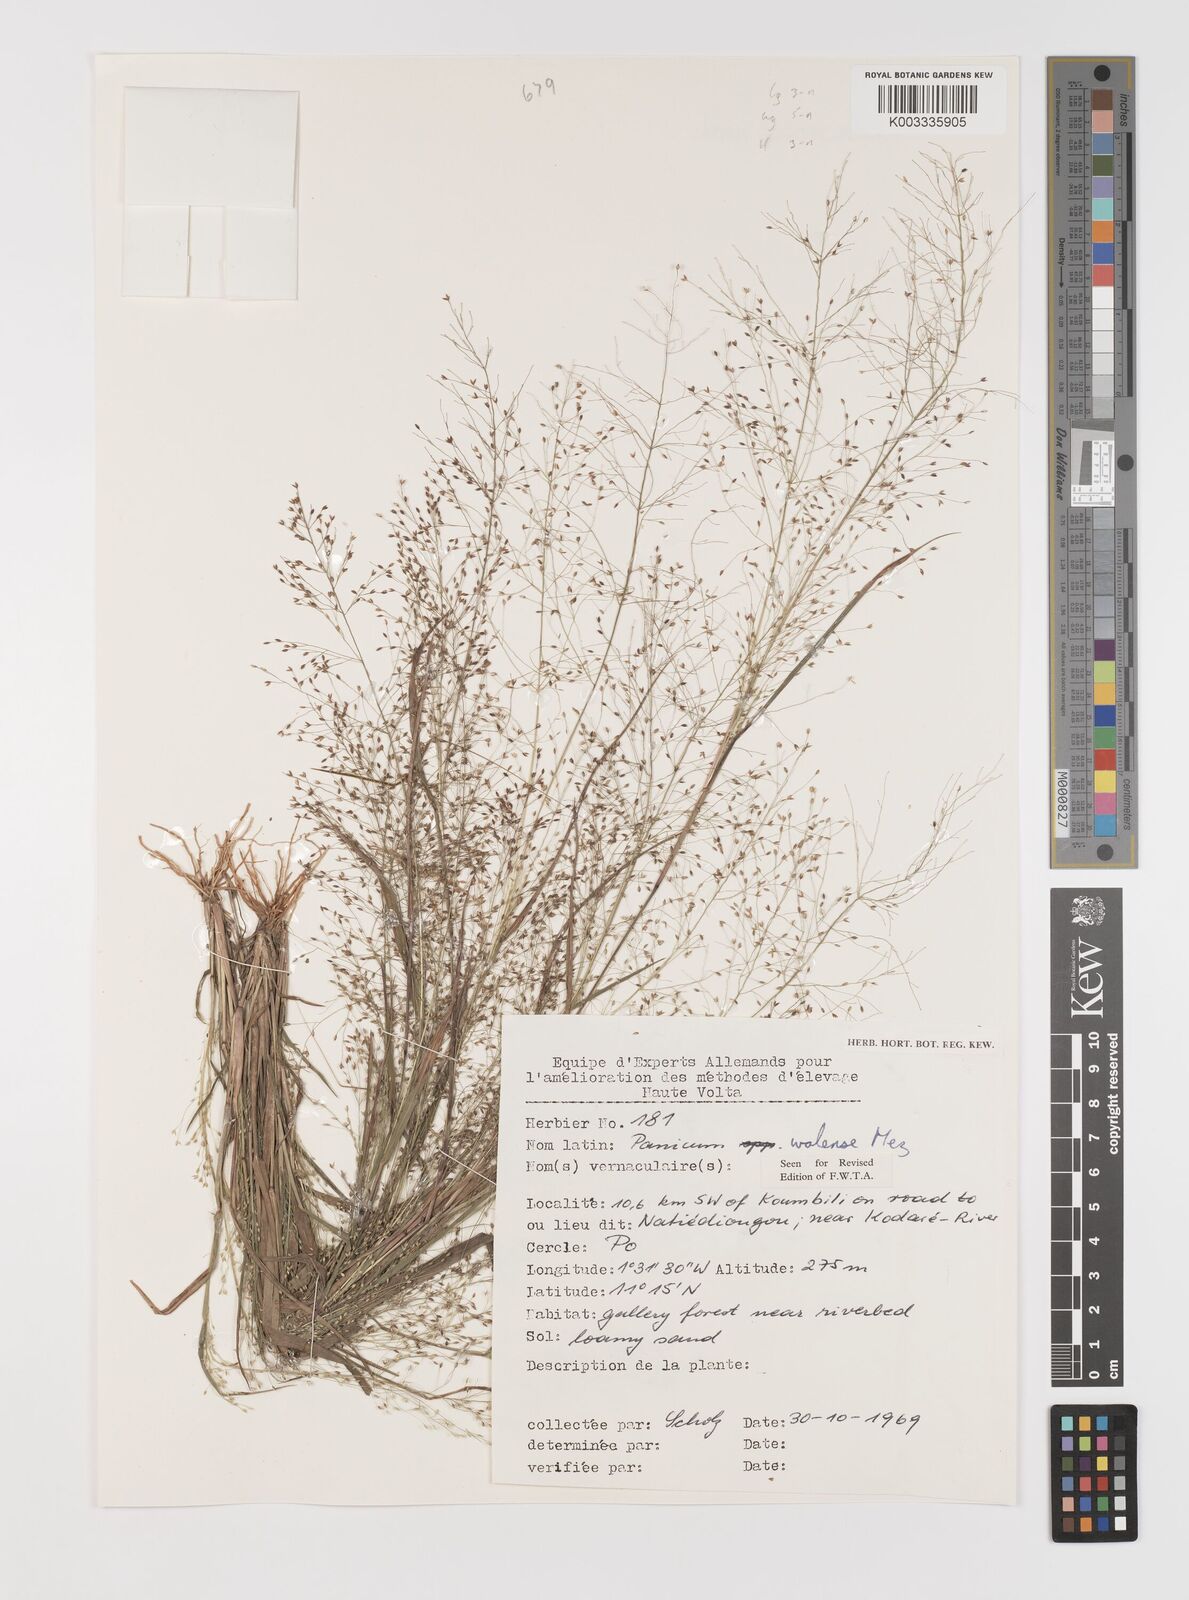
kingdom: Plantae
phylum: Tracheophyta
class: Liliopsida
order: Poales
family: Poaceae
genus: Panicum
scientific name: Panicum humile
